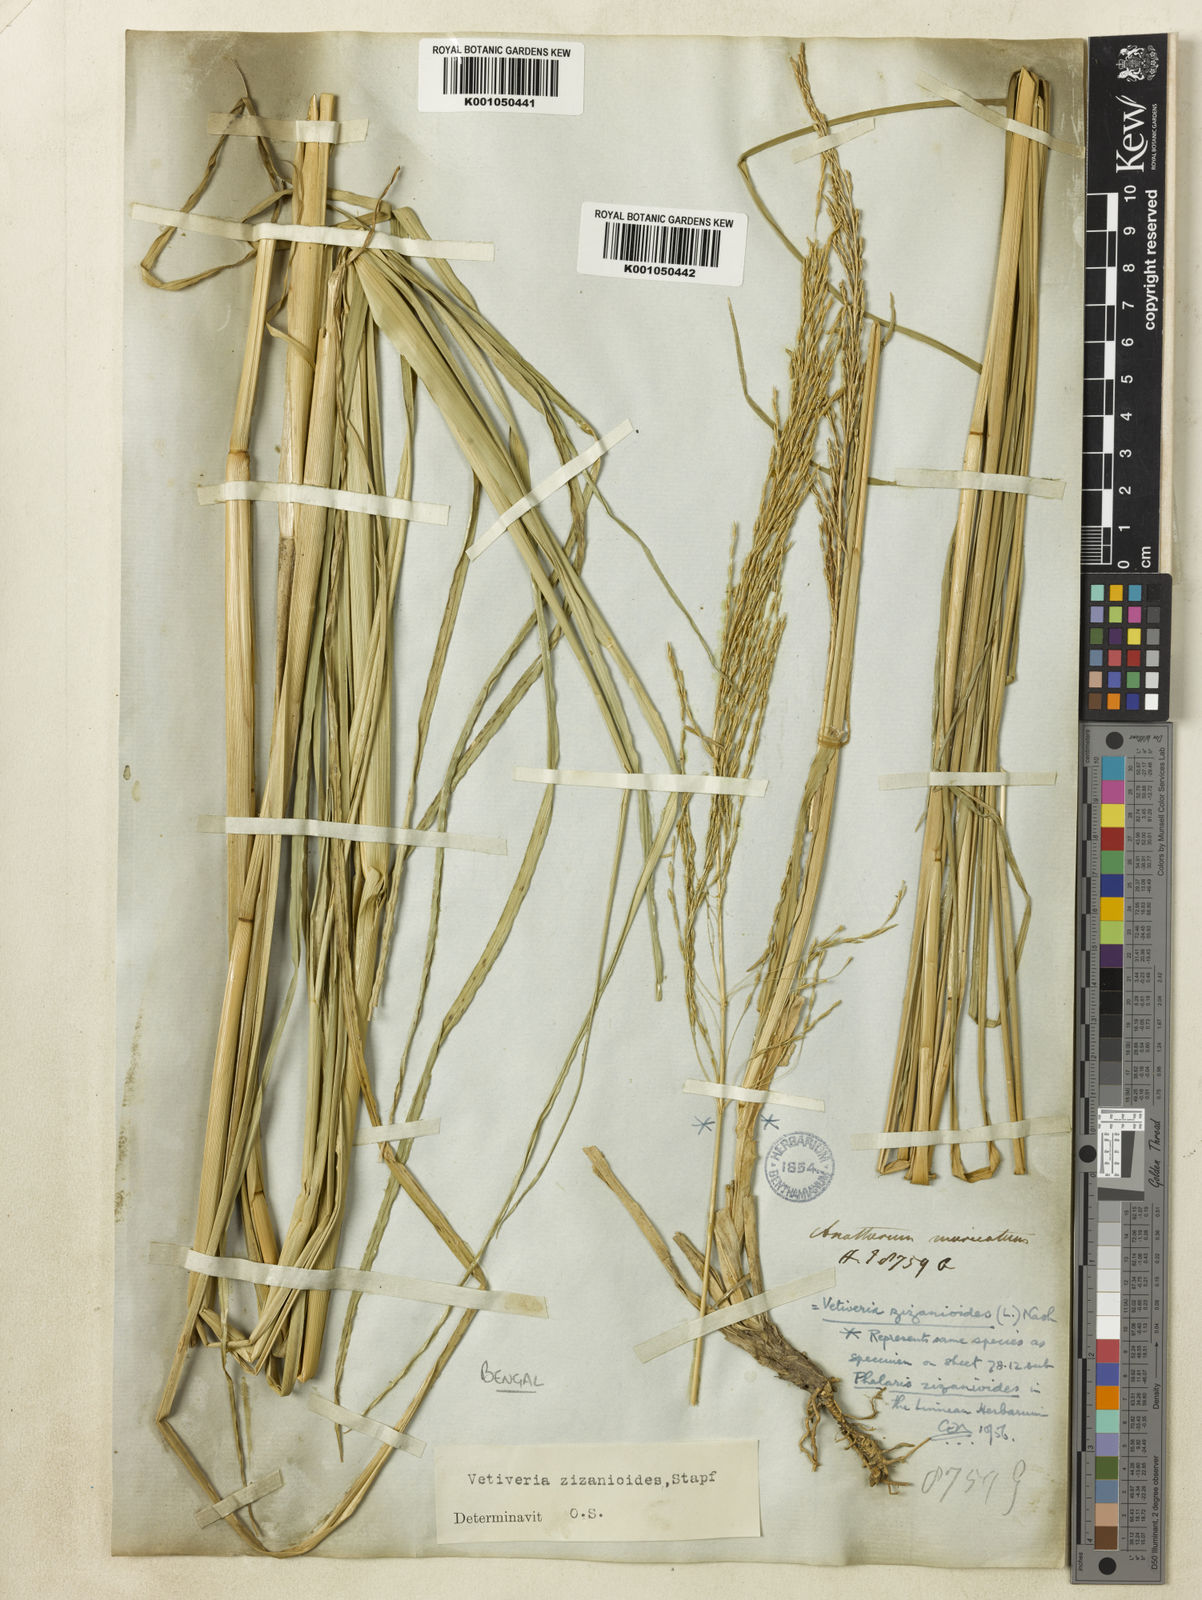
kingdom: Plantae
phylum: Tracheophyta
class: Liliopsida
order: Poales
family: Poaceae
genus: Chrysopogon
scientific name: Chrysopogon zizanioides
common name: False beardgrass
